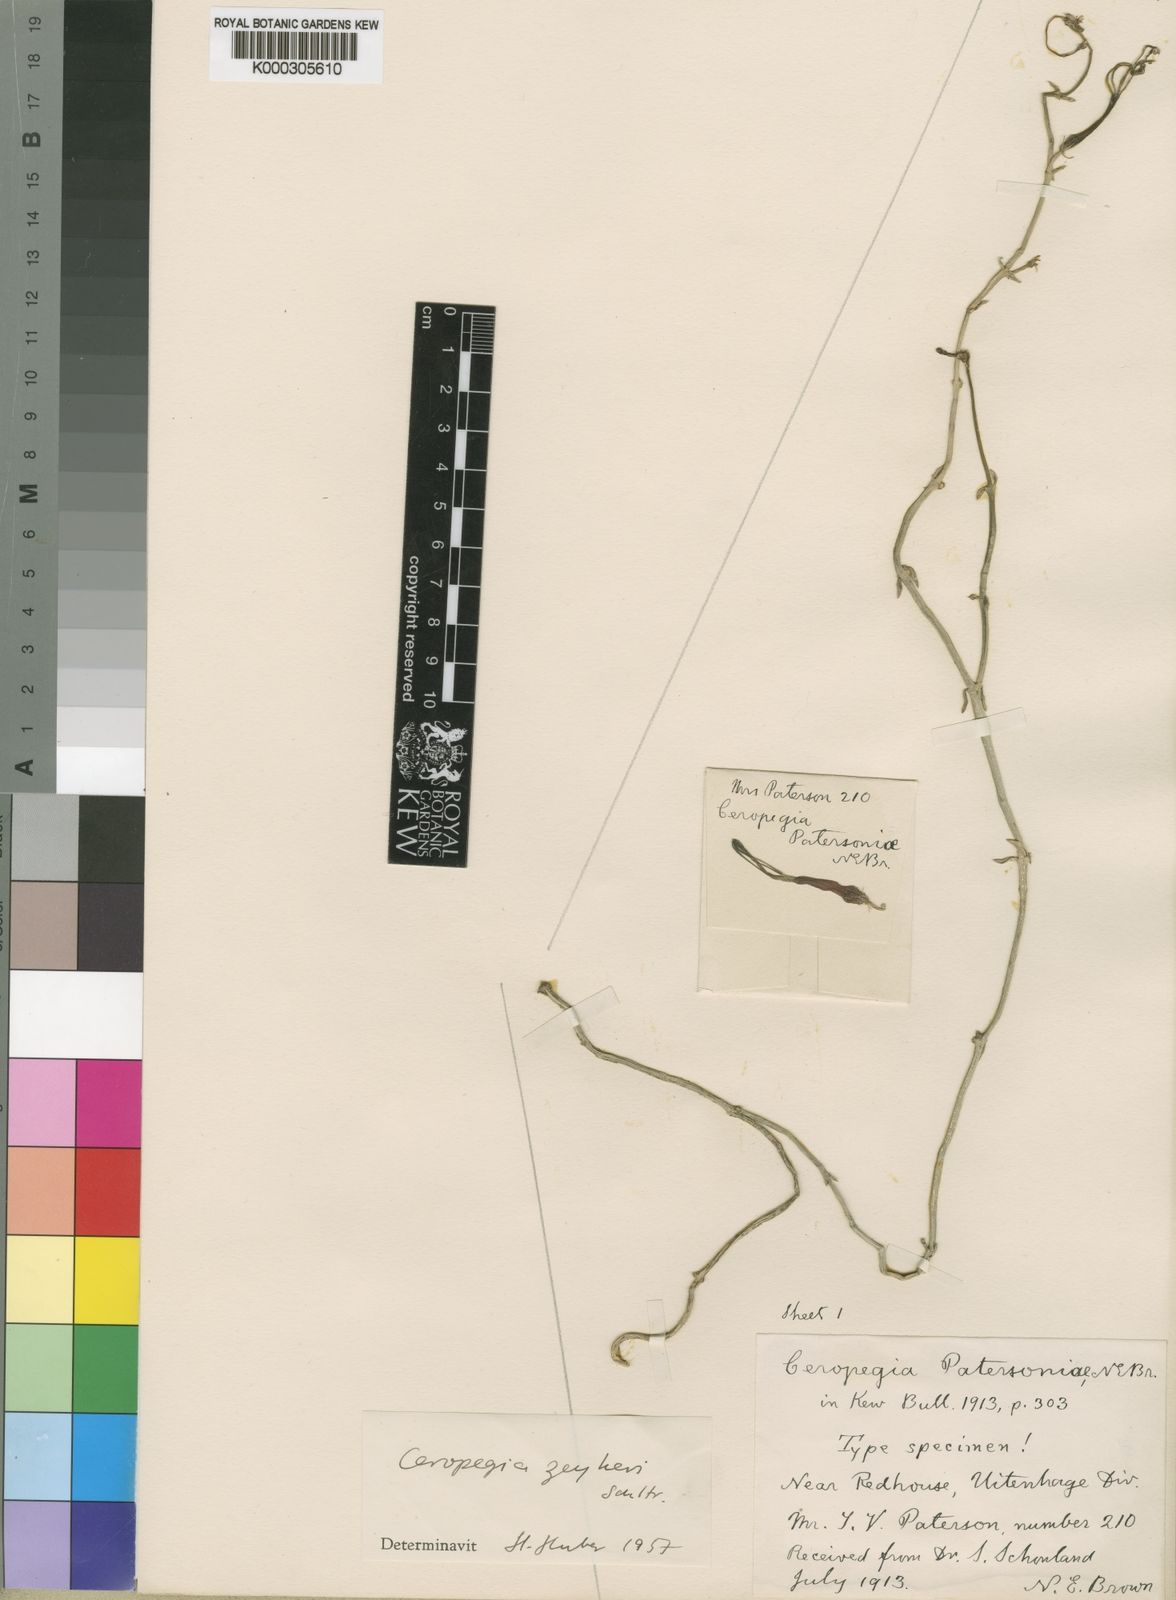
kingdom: Plantae
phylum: Tracheophyta
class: Magnoliopsida
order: Gentianales
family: Apocynaceae
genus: Ceropegia
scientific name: Ceropegia zeyheri
